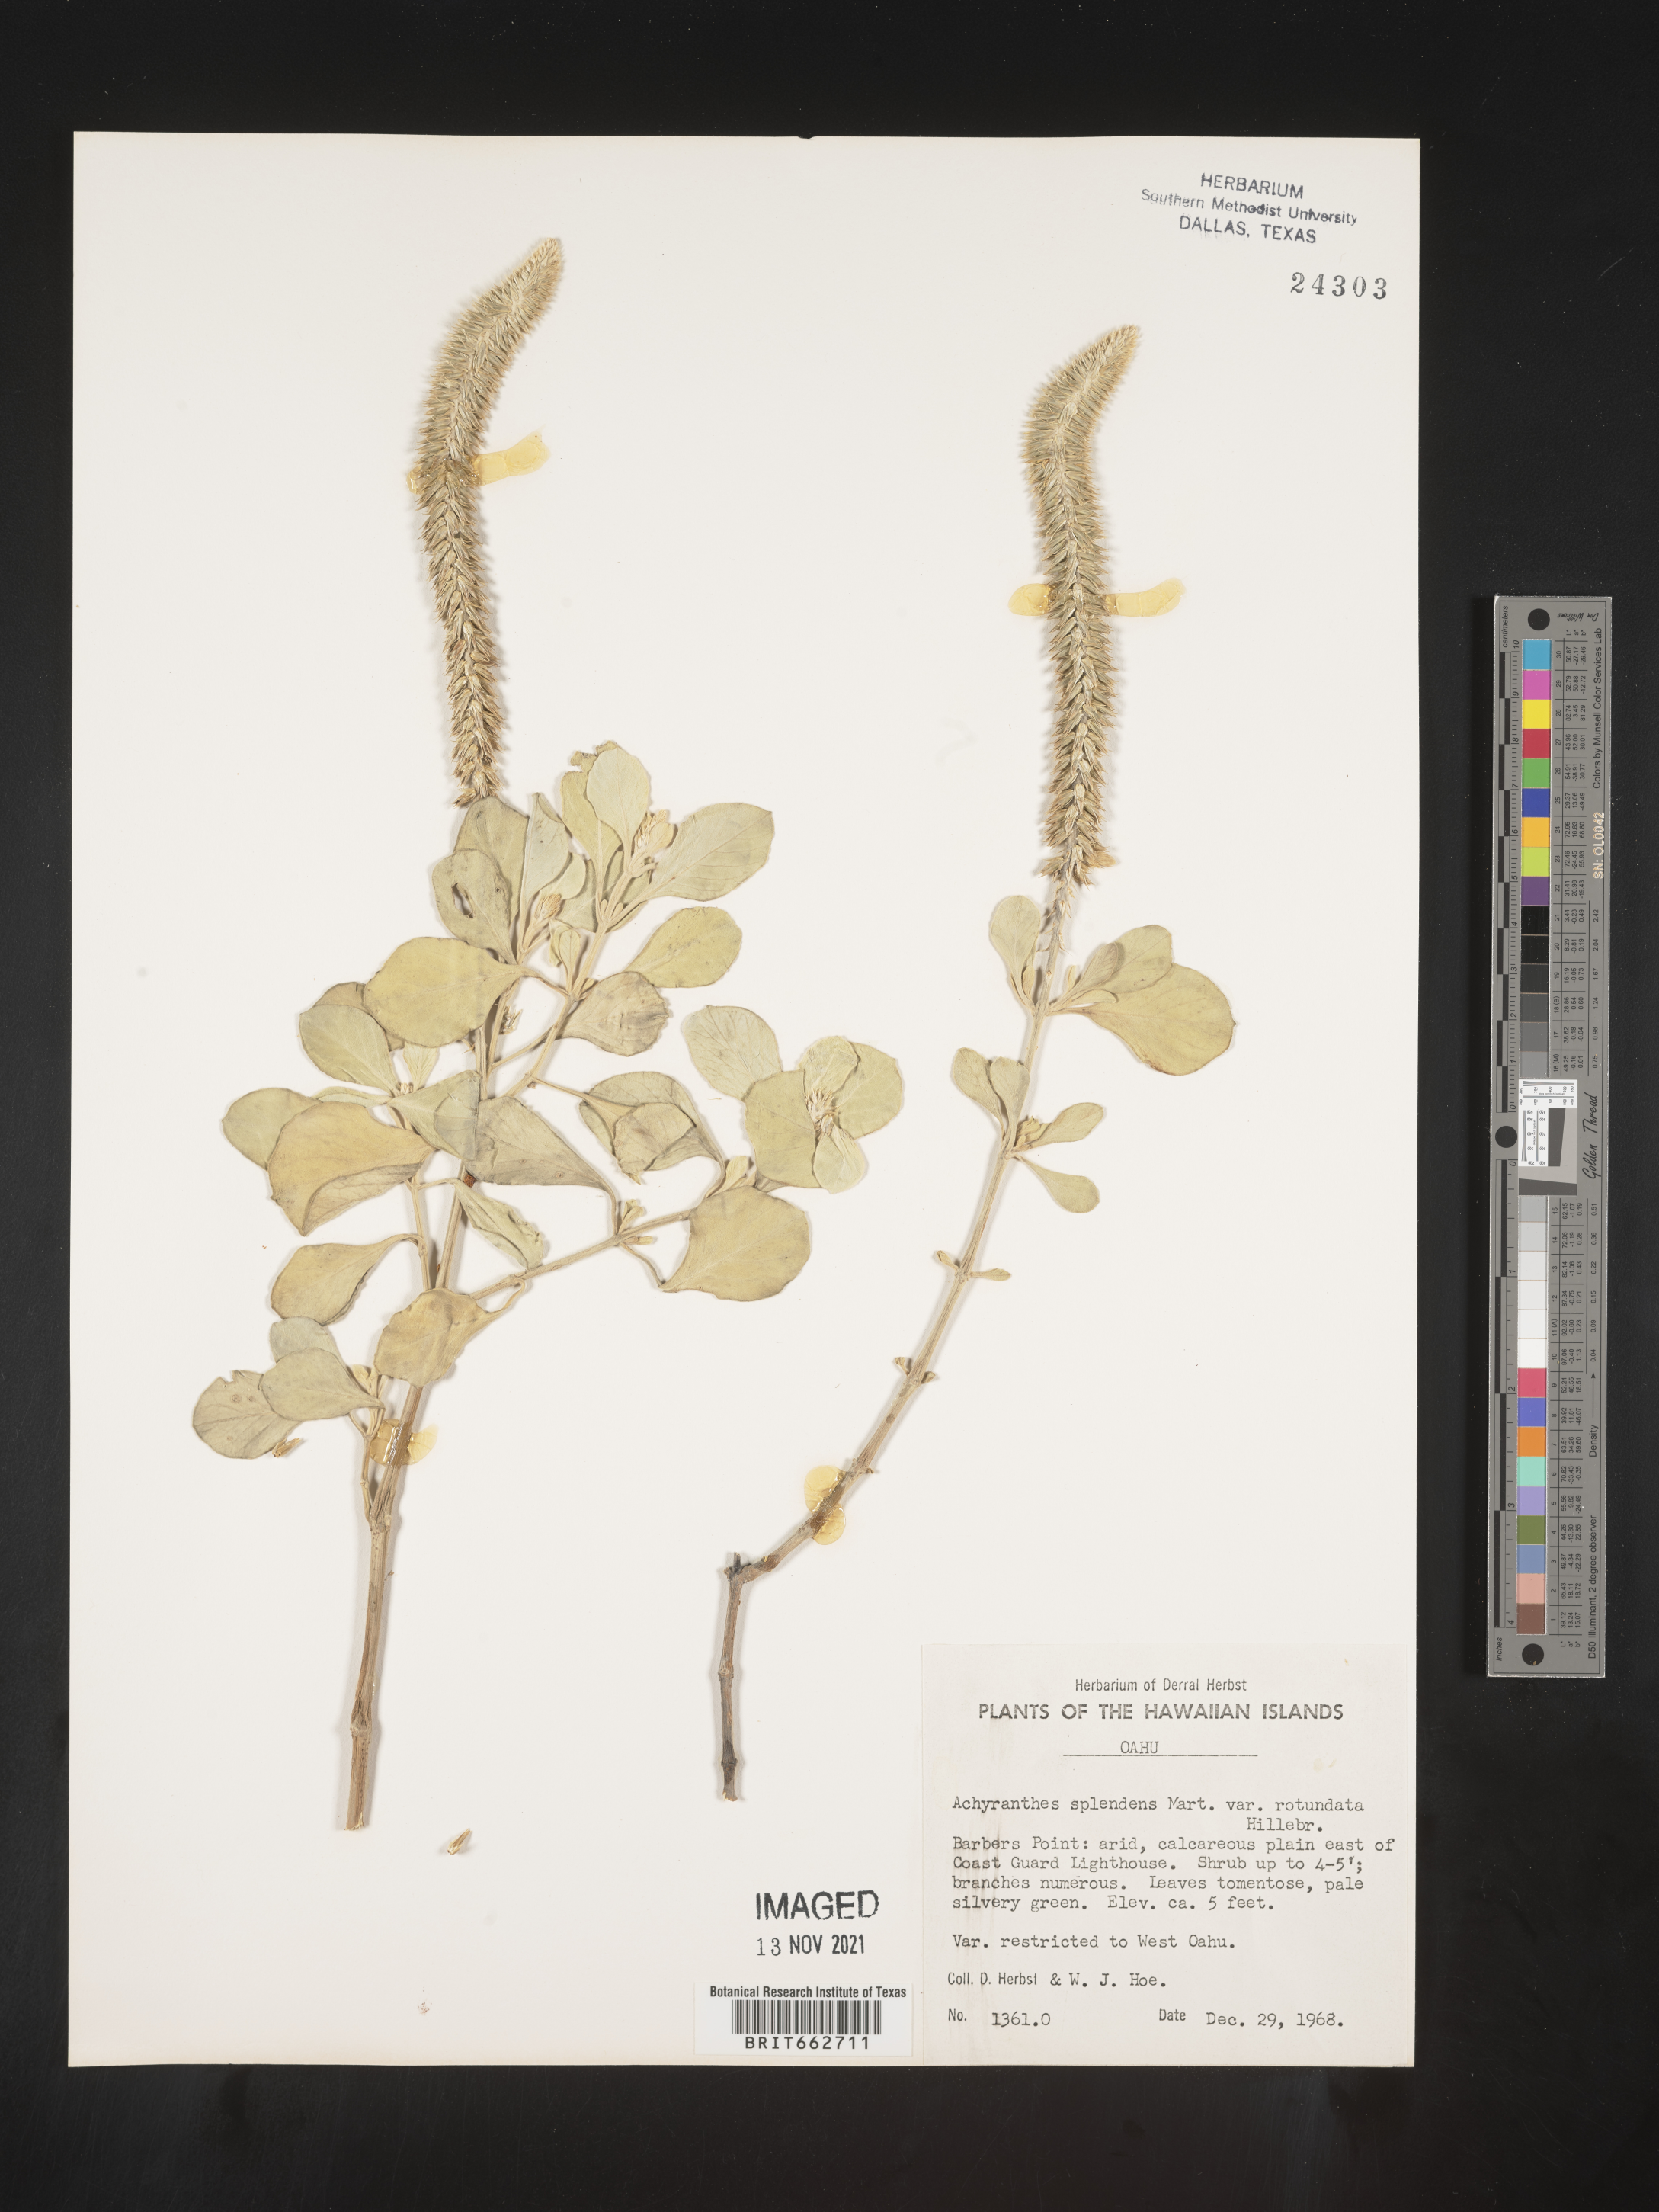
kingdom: Plantae
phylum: Tracheophyta
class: Magnoliopsida
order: Caryophyllales
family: Amaranthaceae
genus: Achyranthes
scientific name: Achyranthes
